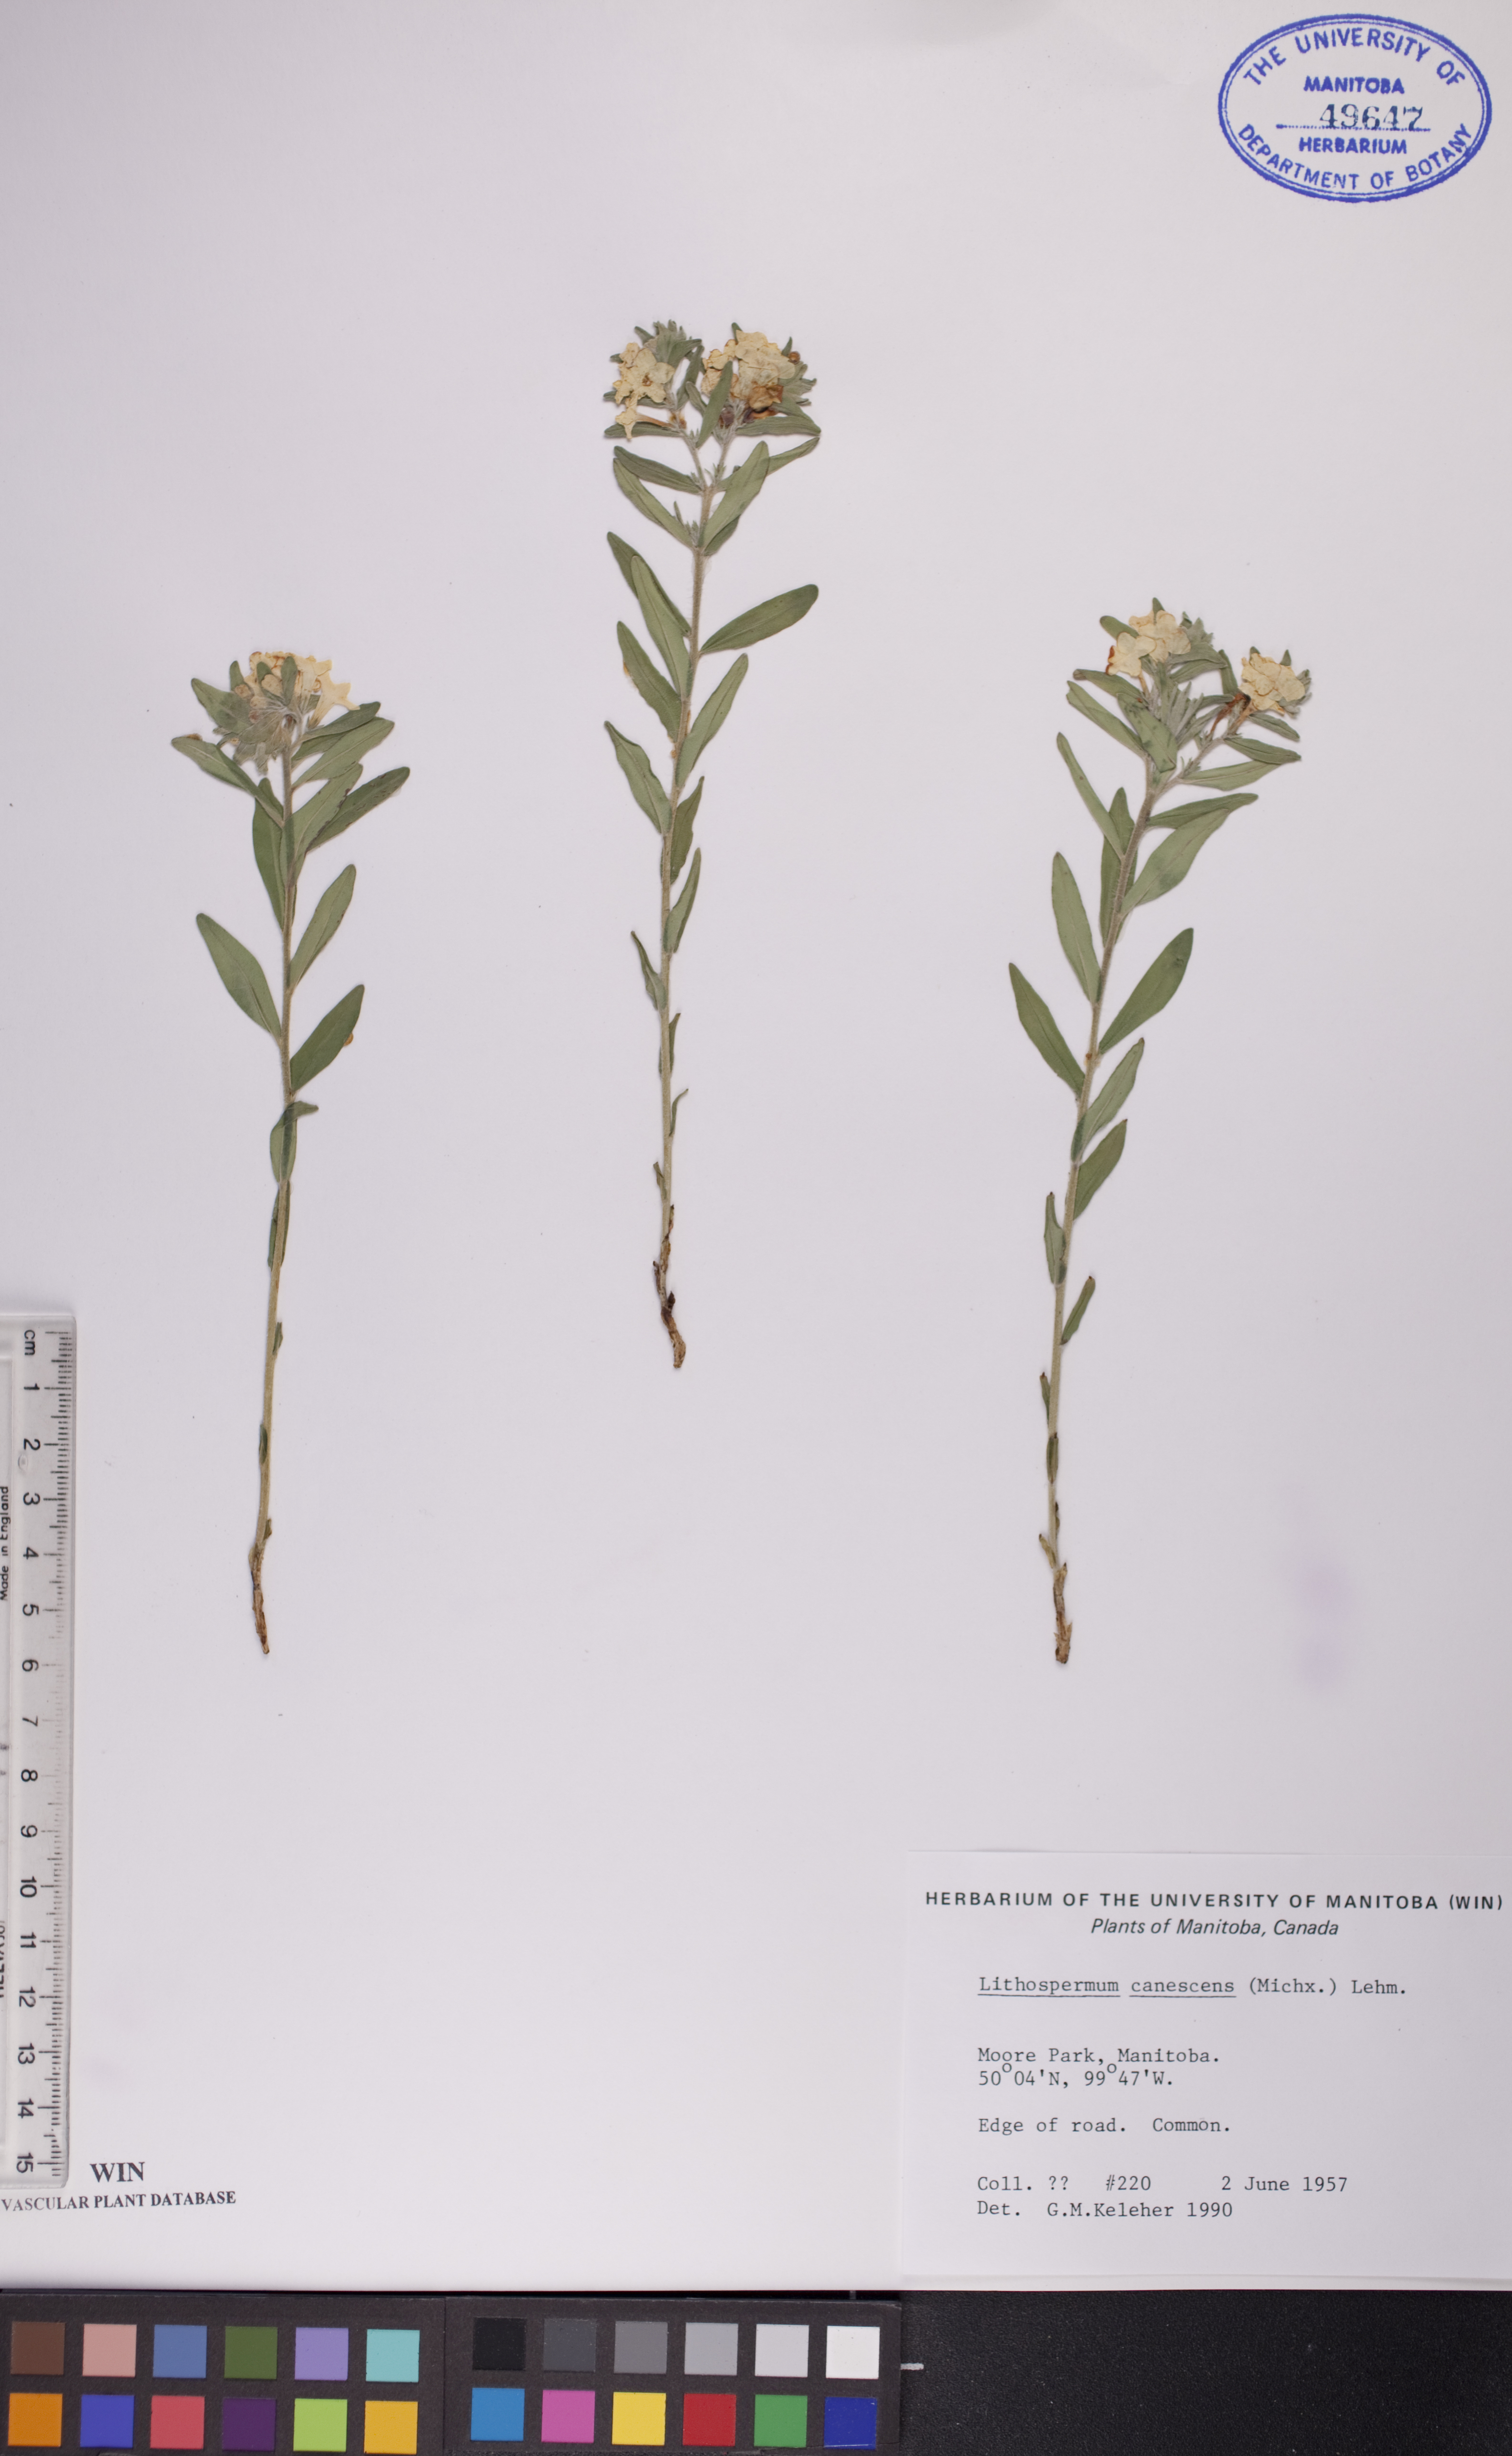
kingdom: Plantae
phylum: Tracheophyta
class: Magnoliopsida
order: Boraginales
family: Boraginaceae
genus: Lithospermum
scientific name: Lithospermum canescens
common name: Hoary puccoon
